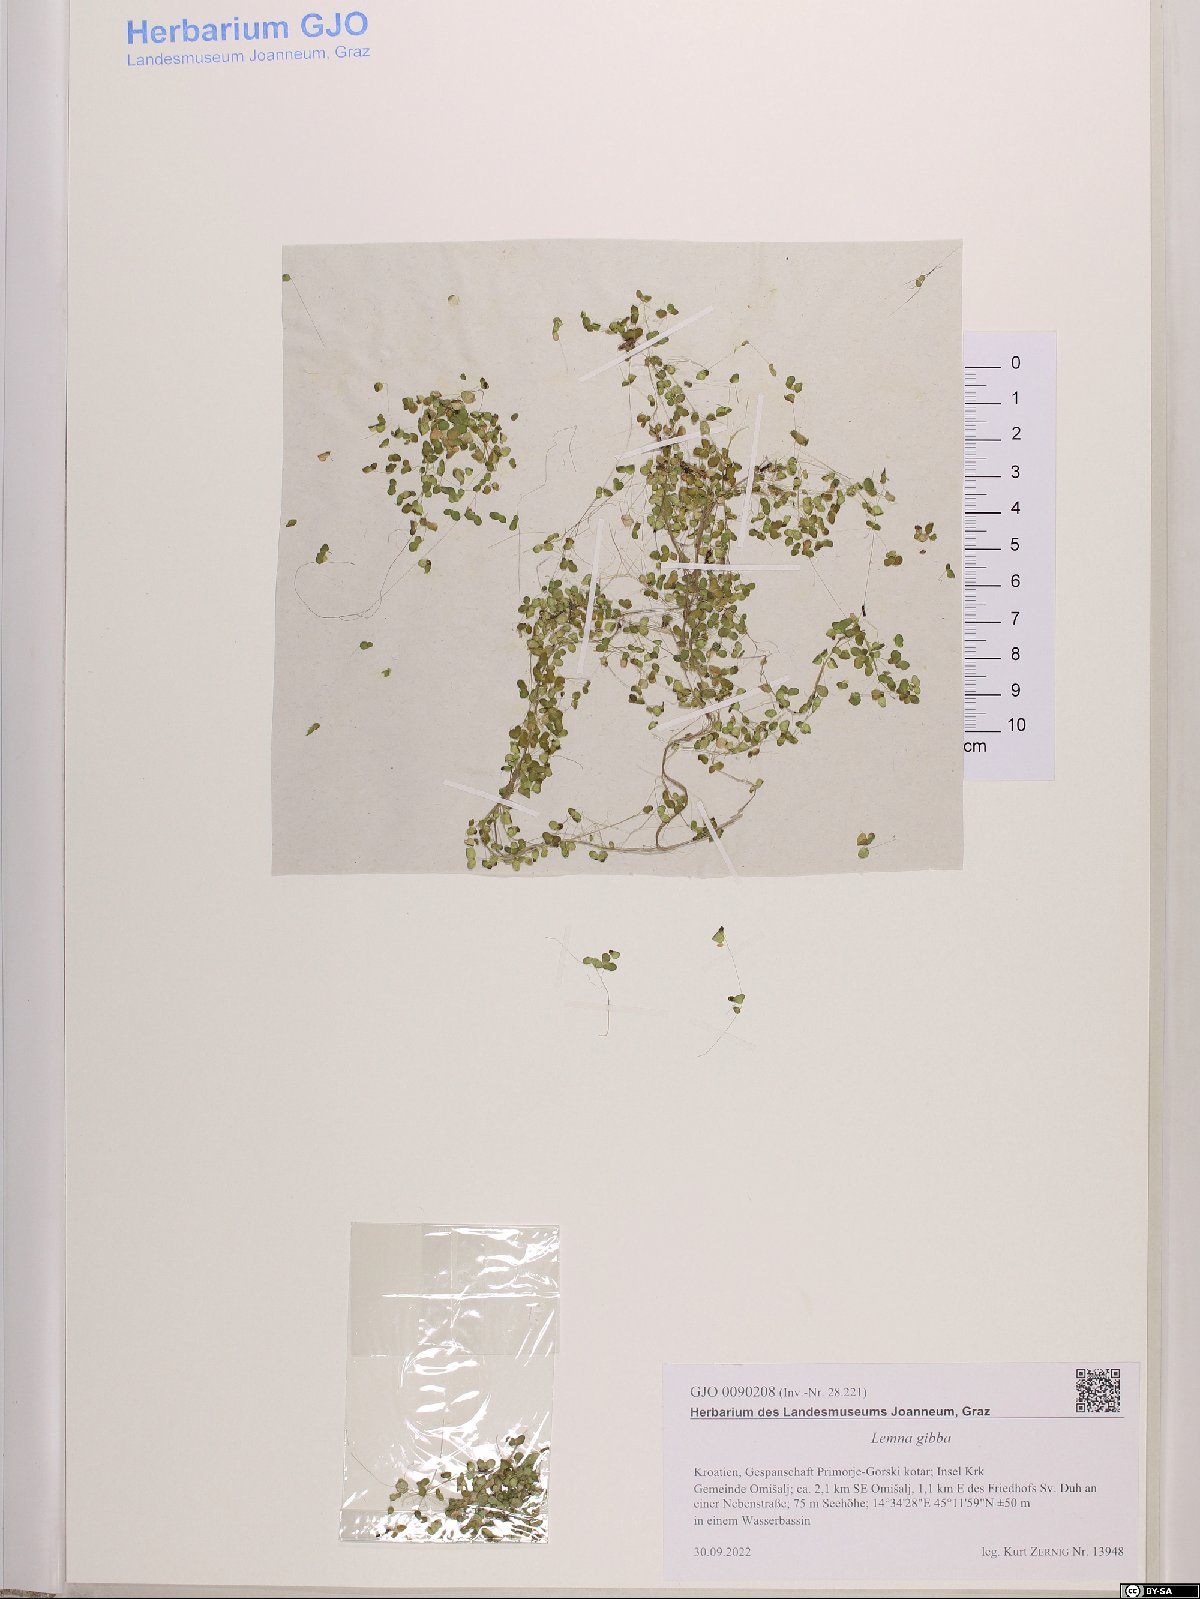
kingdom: Plantae
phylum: Tracheophyta
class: Liliopsida
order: Alismatales
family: Araceae
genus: Lemna
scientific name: Lemna gibba
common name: Fat duckweed
